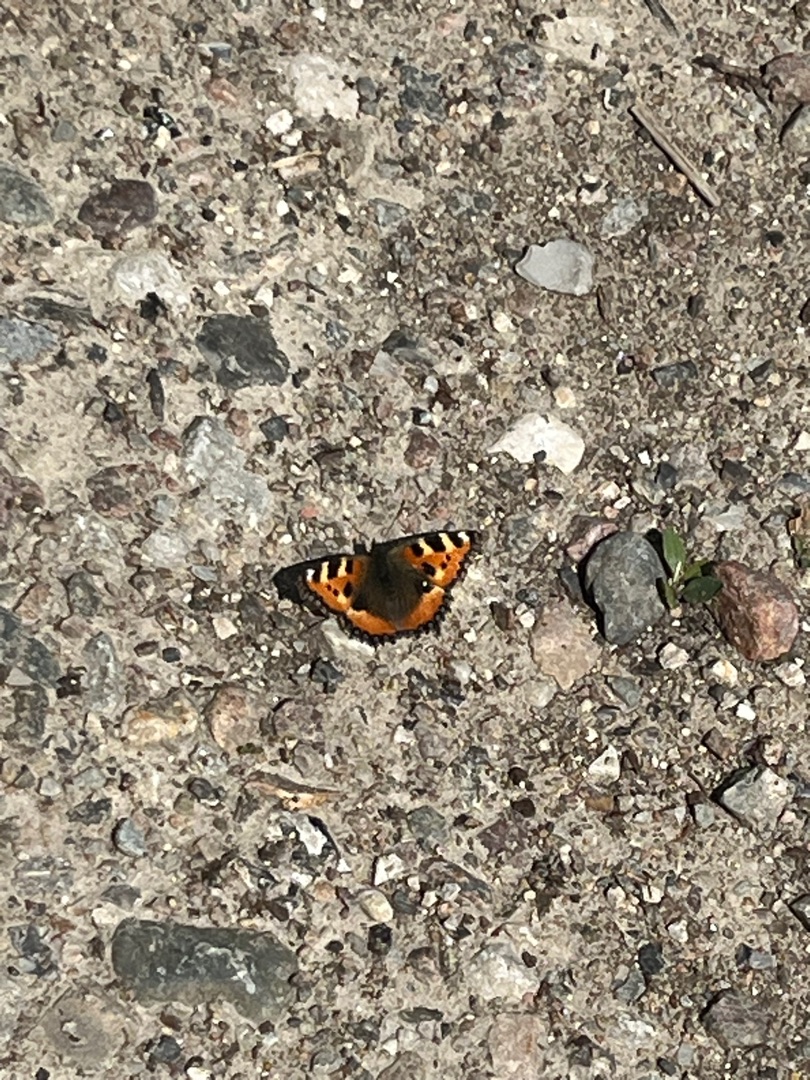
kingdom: Animalia
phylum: Arthropoda
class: Insecta
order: Lepidoptera
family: Nymphalidae
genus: Aglais
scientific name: Aglais urticae
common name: Nældens takvinge
